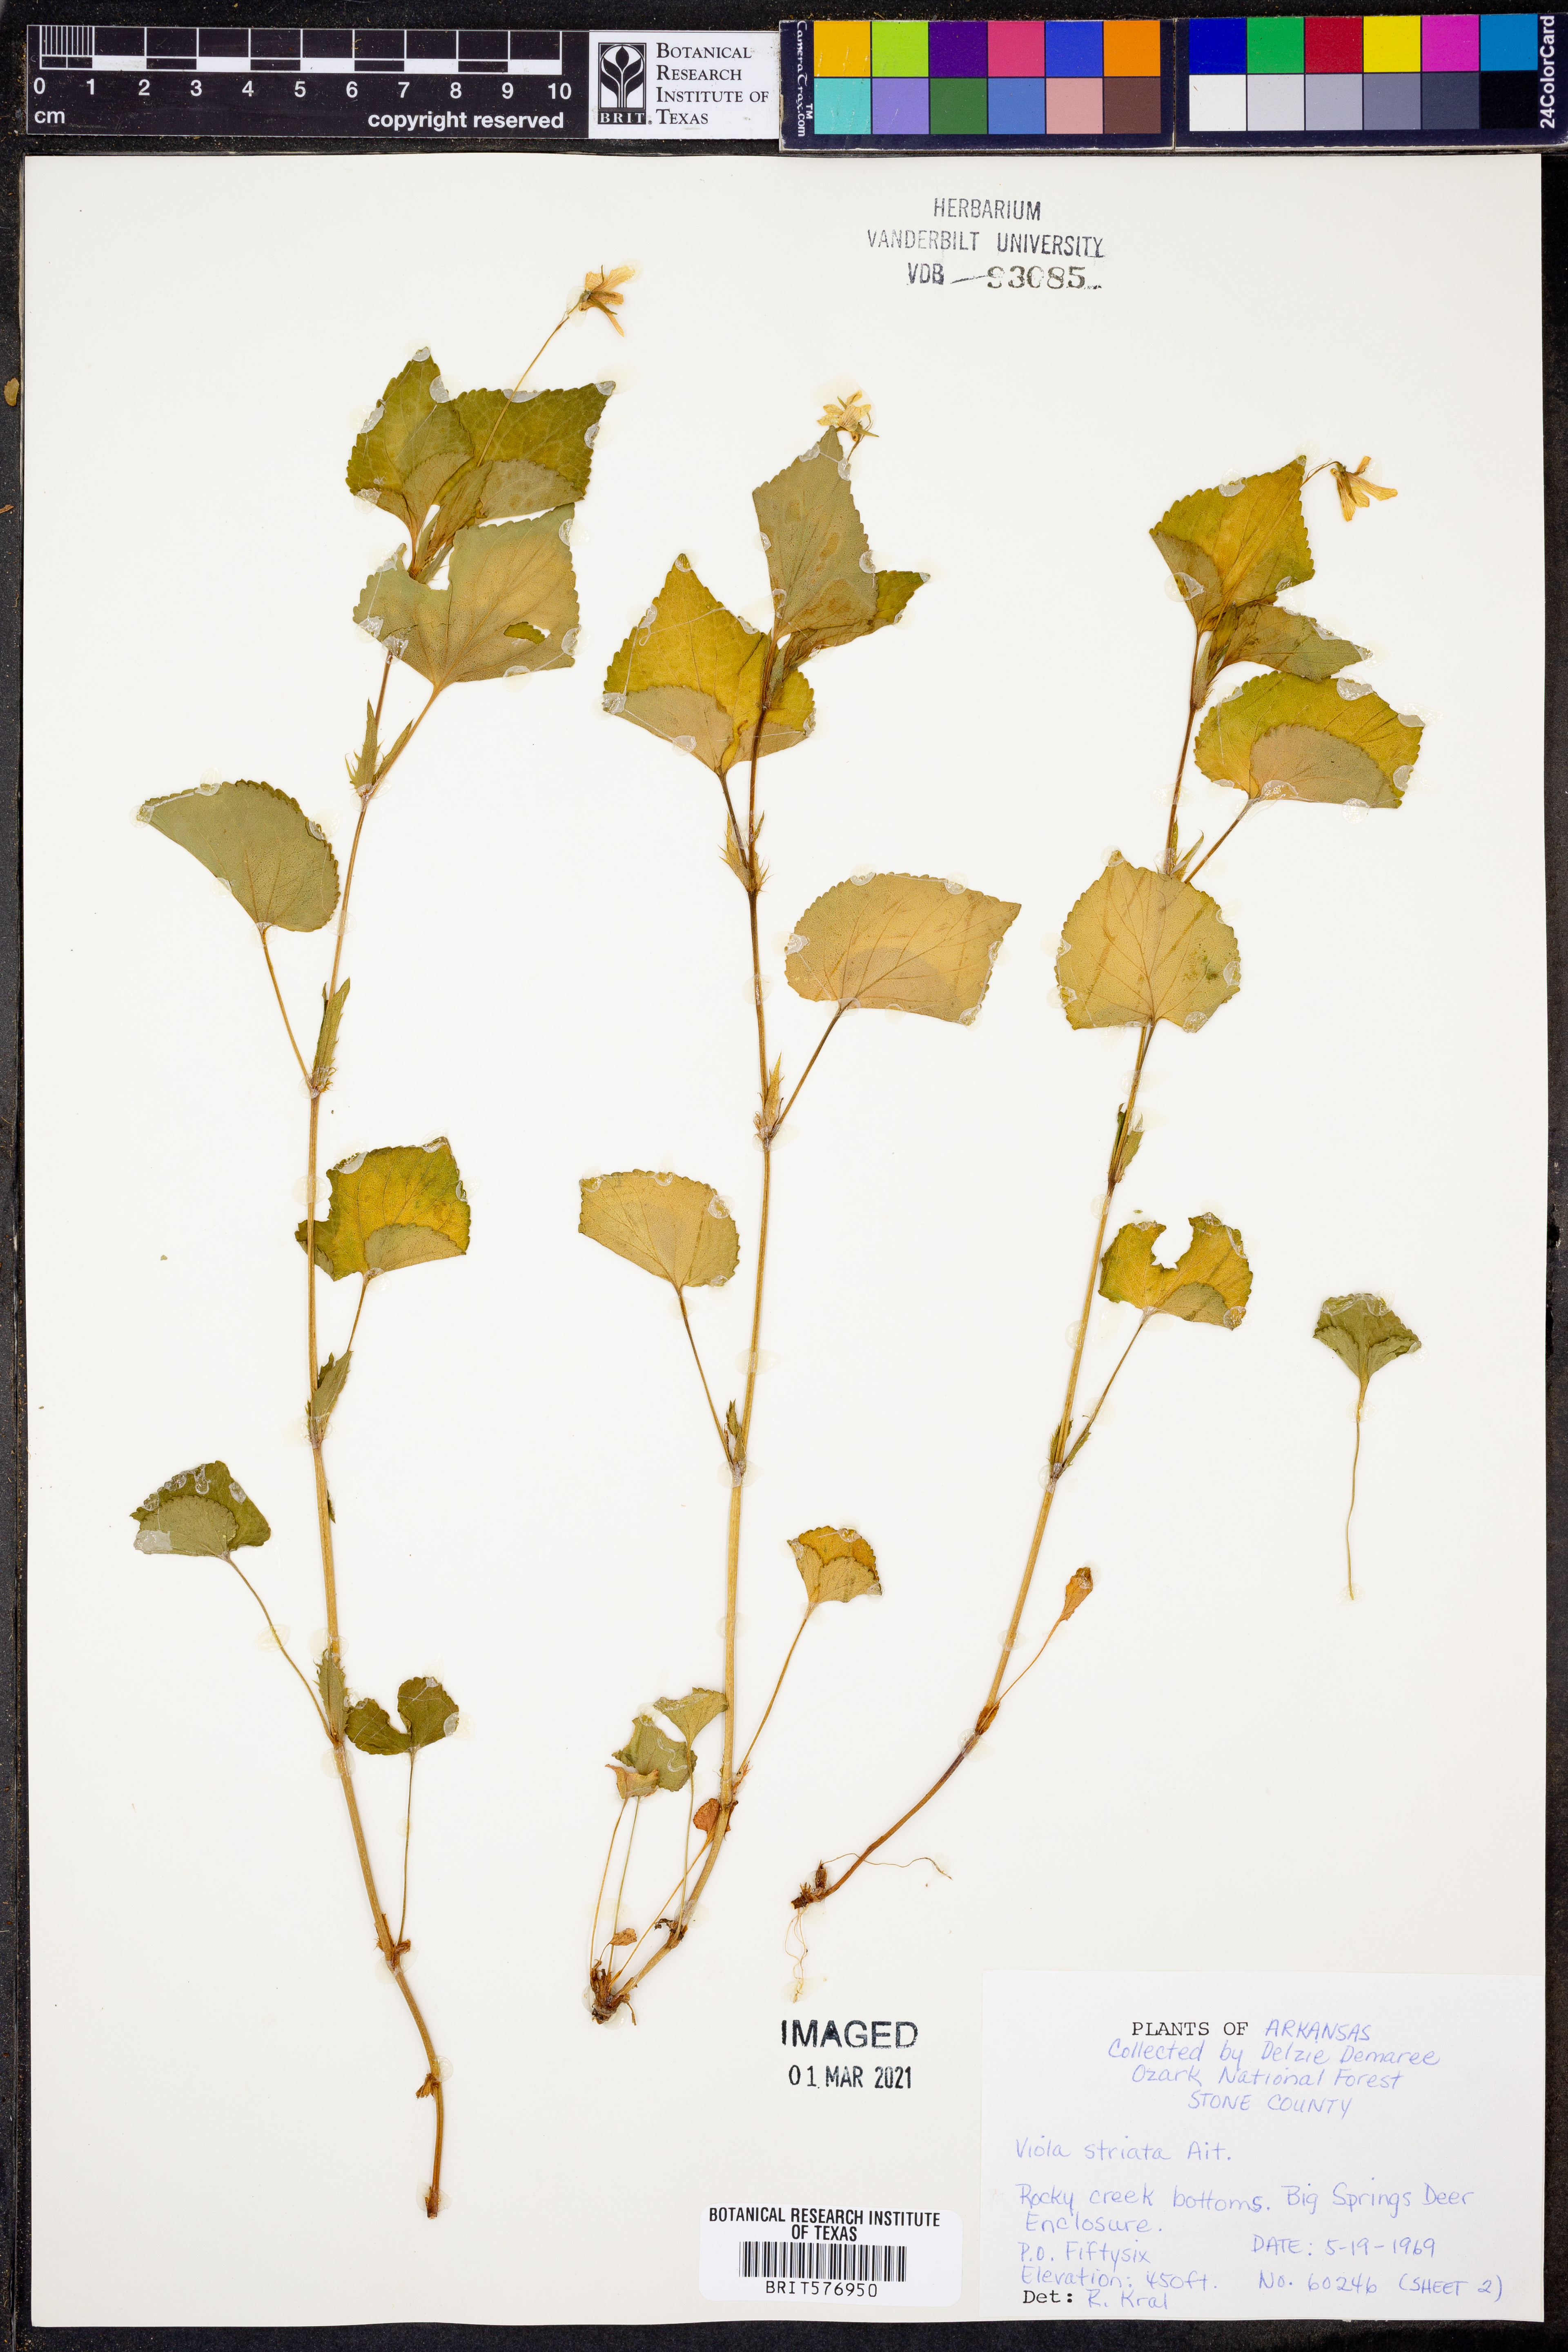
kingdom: Plantae
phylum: Tracheophyta
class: Magnoliopsida
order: Malpighiales
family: Violaceae
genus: Viola
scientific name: Viola striata
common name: Cream violet
